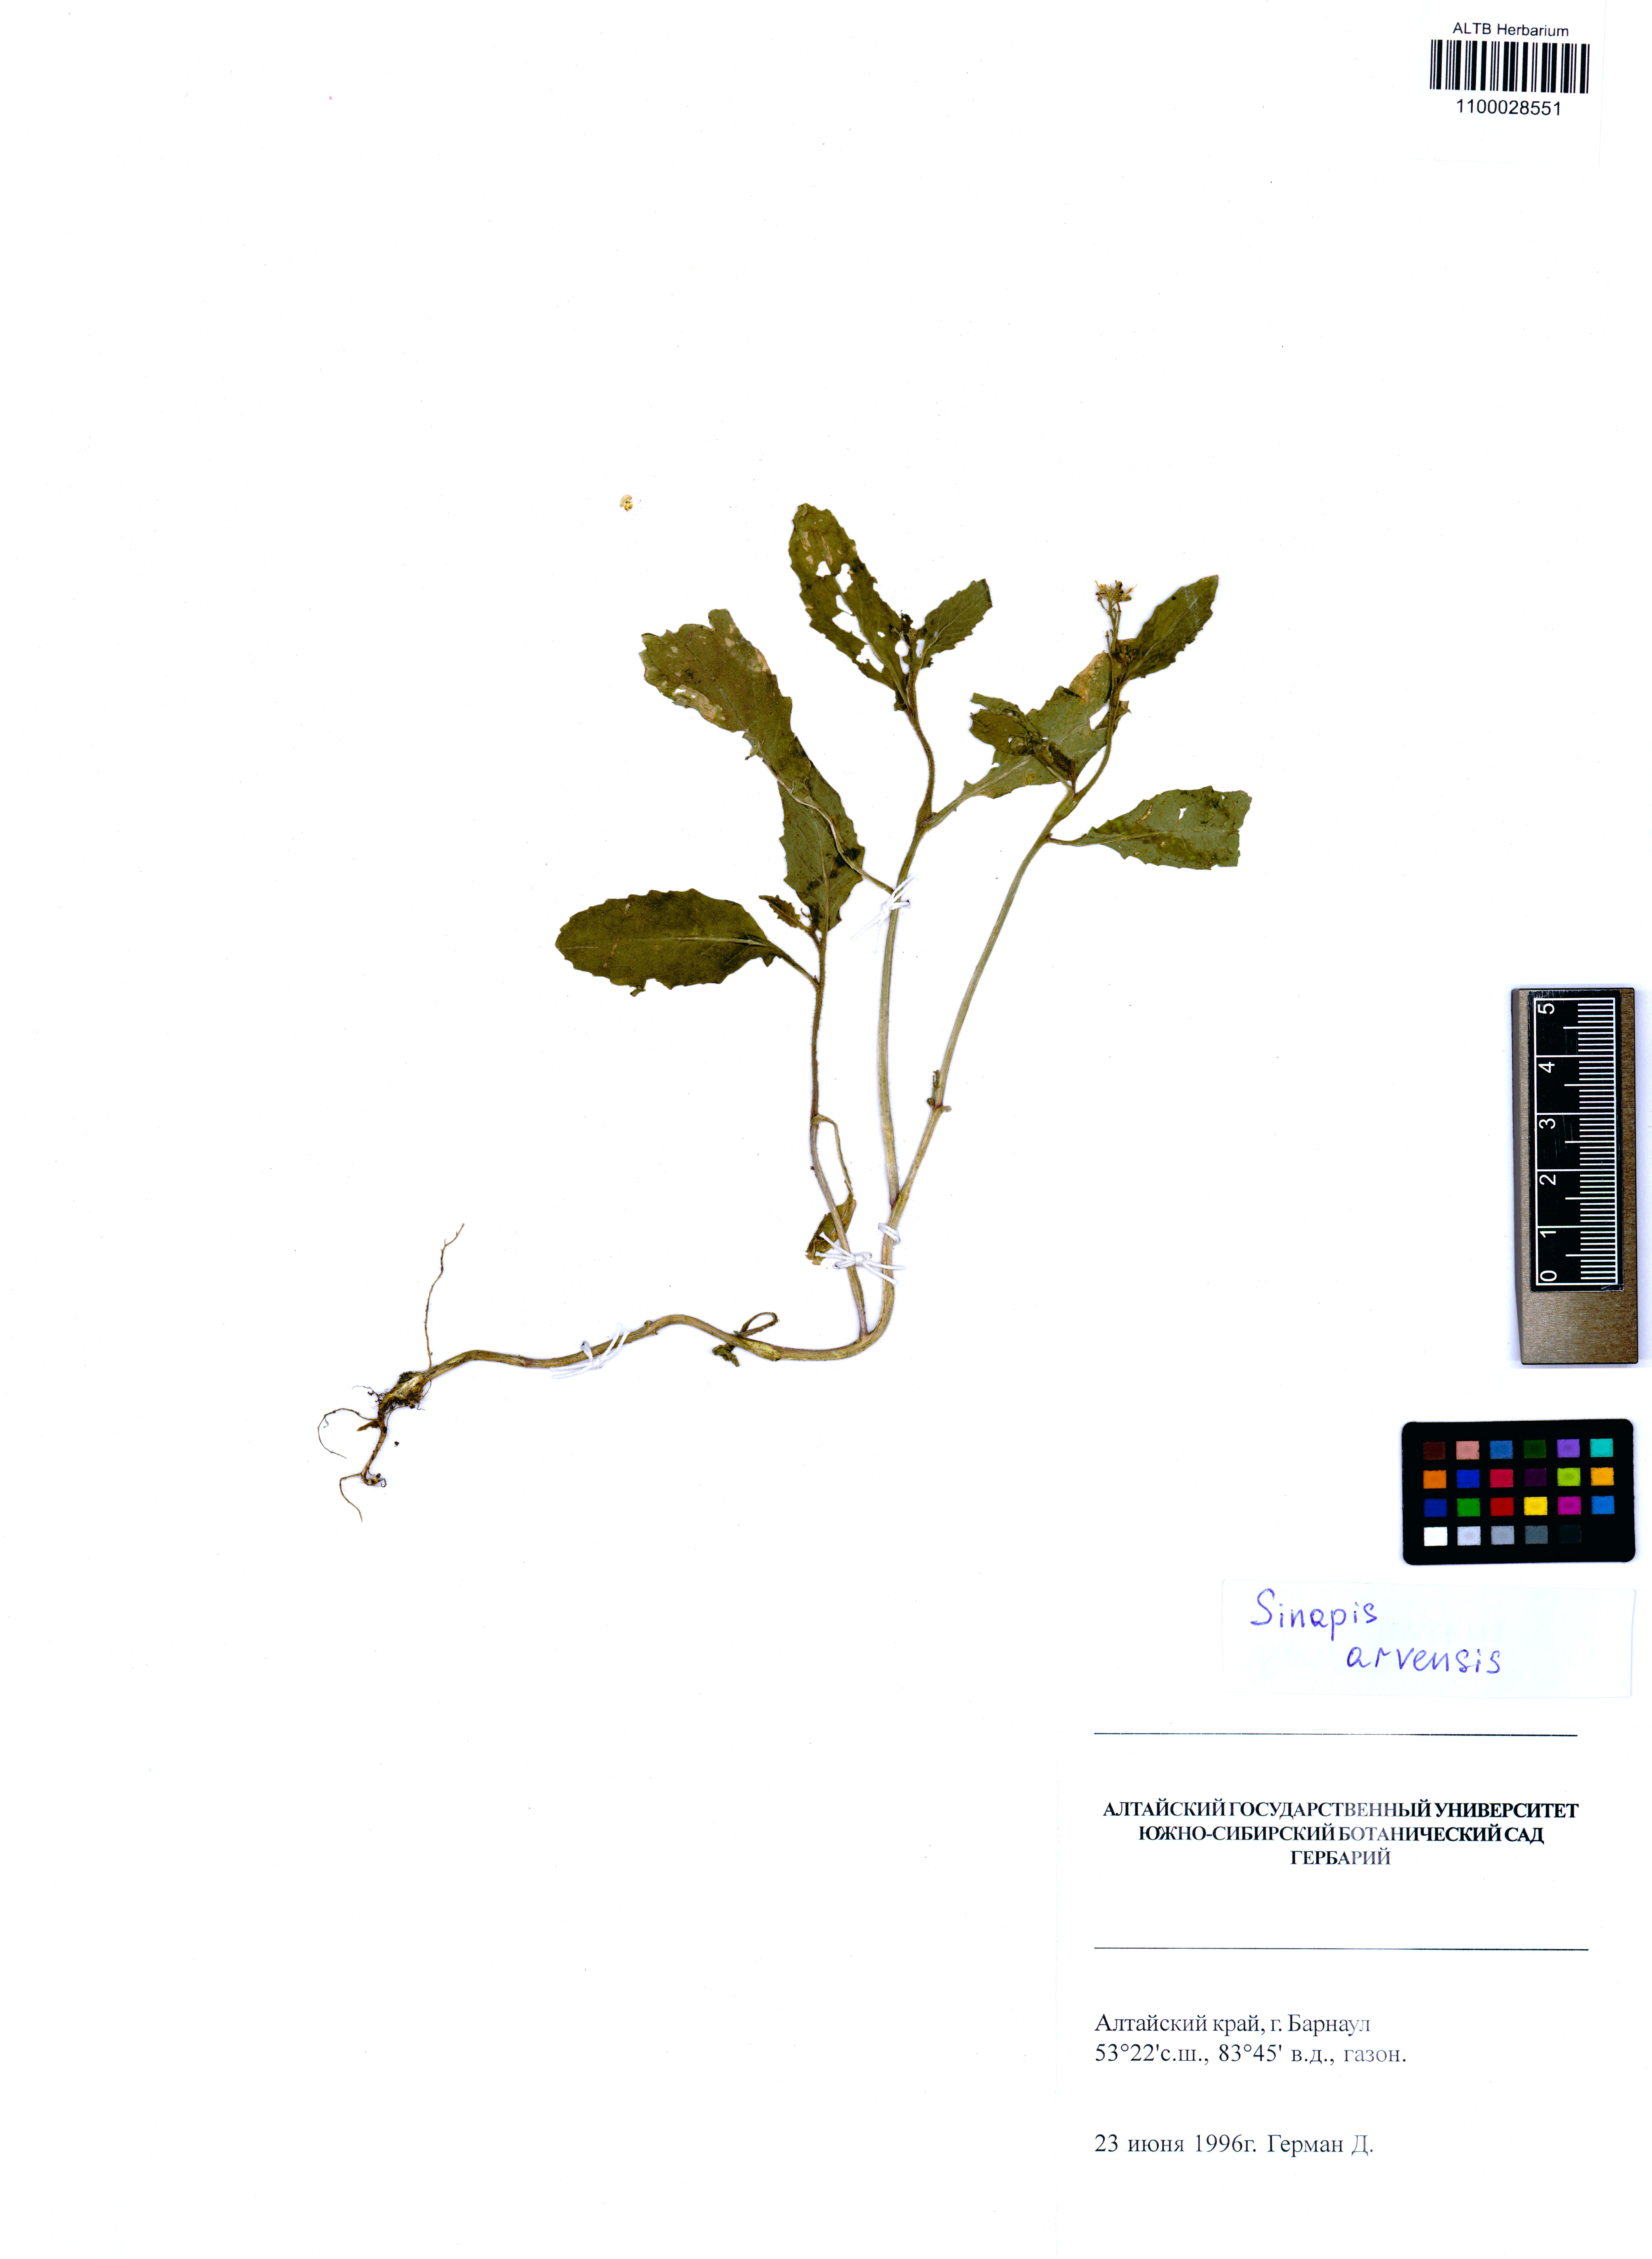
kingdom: Plantae
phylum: Tracheophyta
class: Magnoliopsida
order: Brassicales
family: Brassicaceae
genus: Sinapis
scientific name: Sinapis arvensis
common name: Charlock
